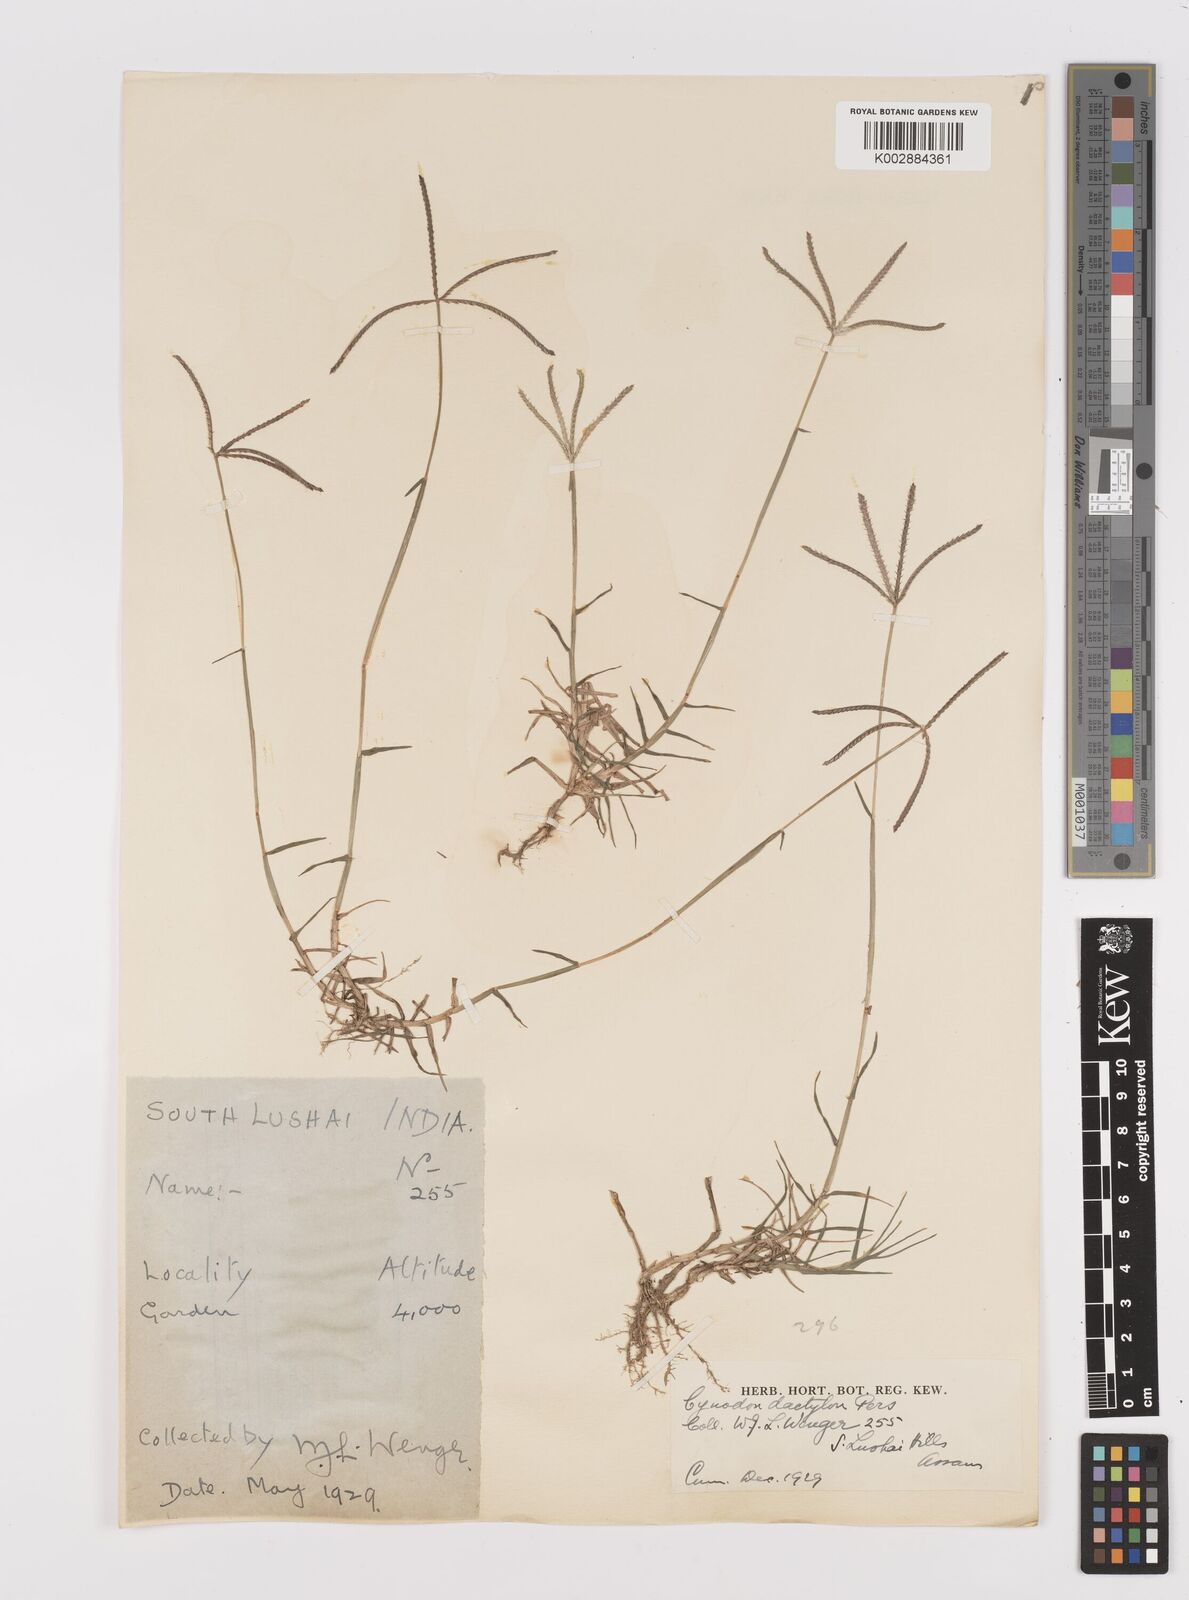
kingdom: Plantae
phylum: Tracheophyta
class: Liliopsida
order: Poales
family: Poaceae
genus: Cynodon
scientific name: Cynodon dactylon
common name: Bermuda grass
